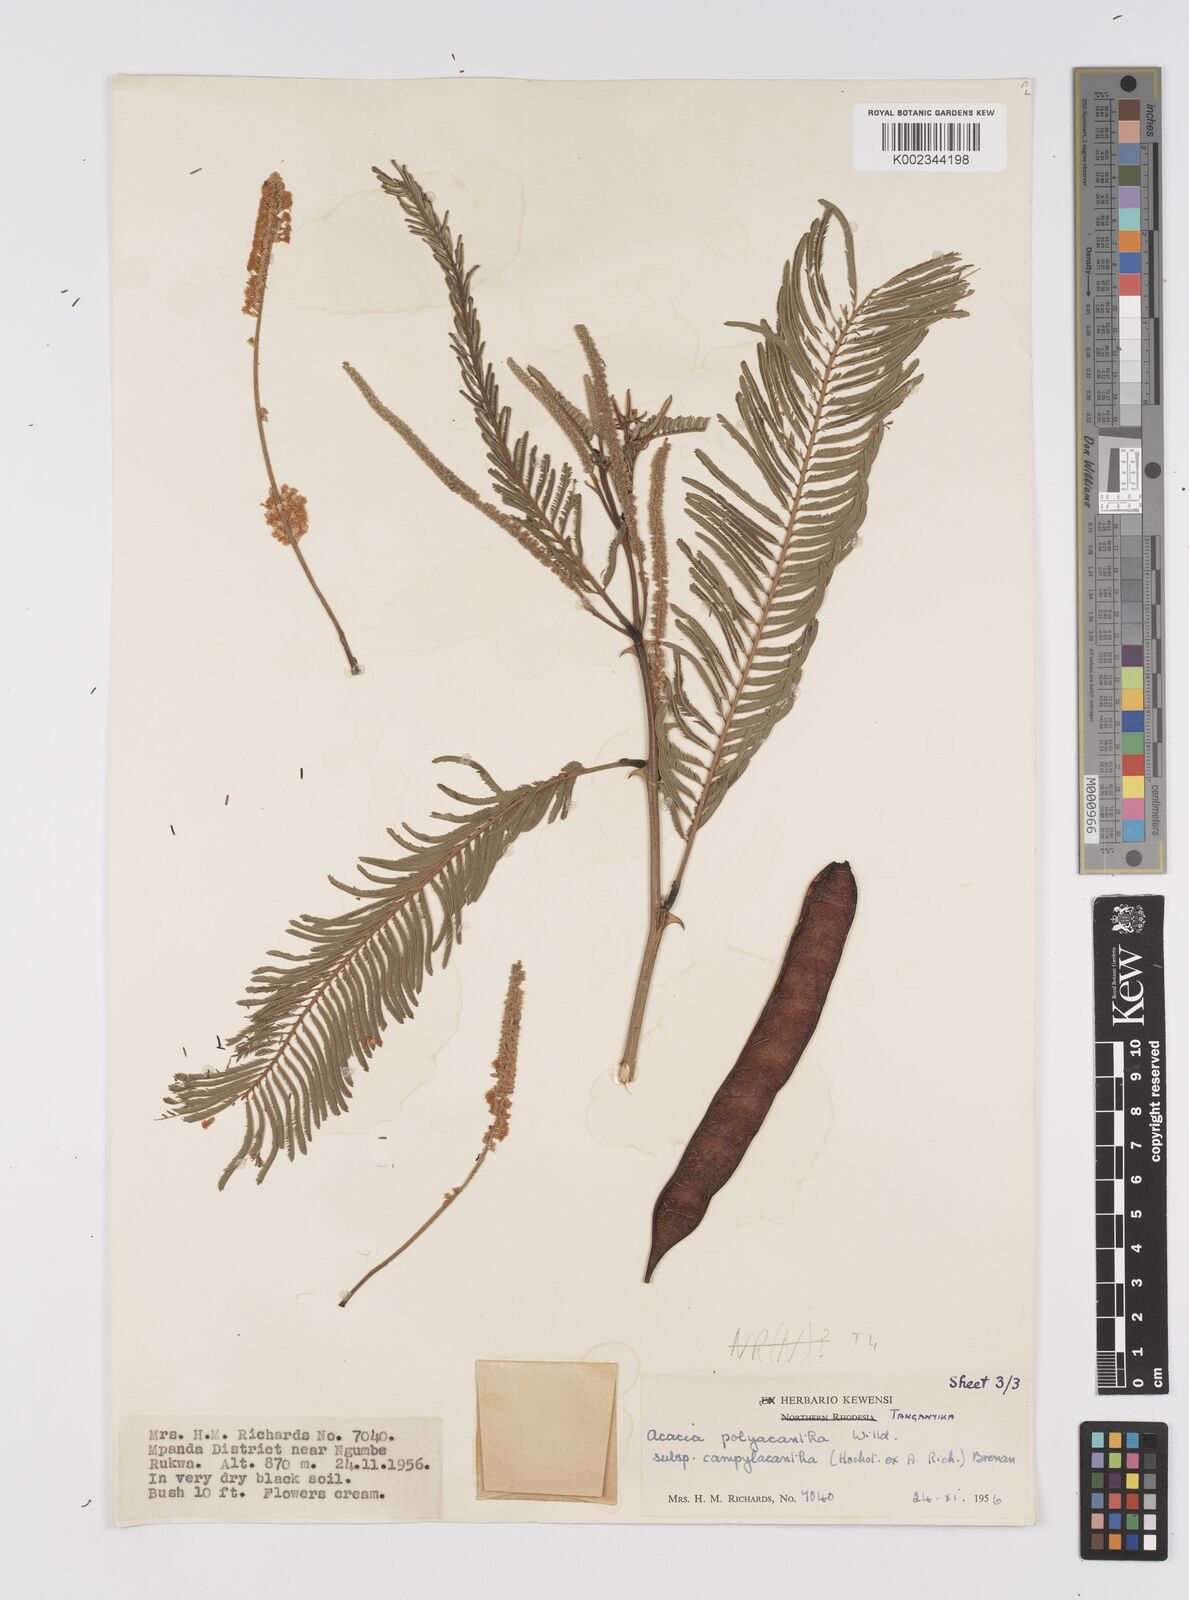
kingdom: Plantae
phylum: Tracheophyta
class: Magnoliopsida
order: Fabales
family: Fabaceae
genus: Senegalia
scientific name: Senegalia polyacantha
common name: Whitethorn
